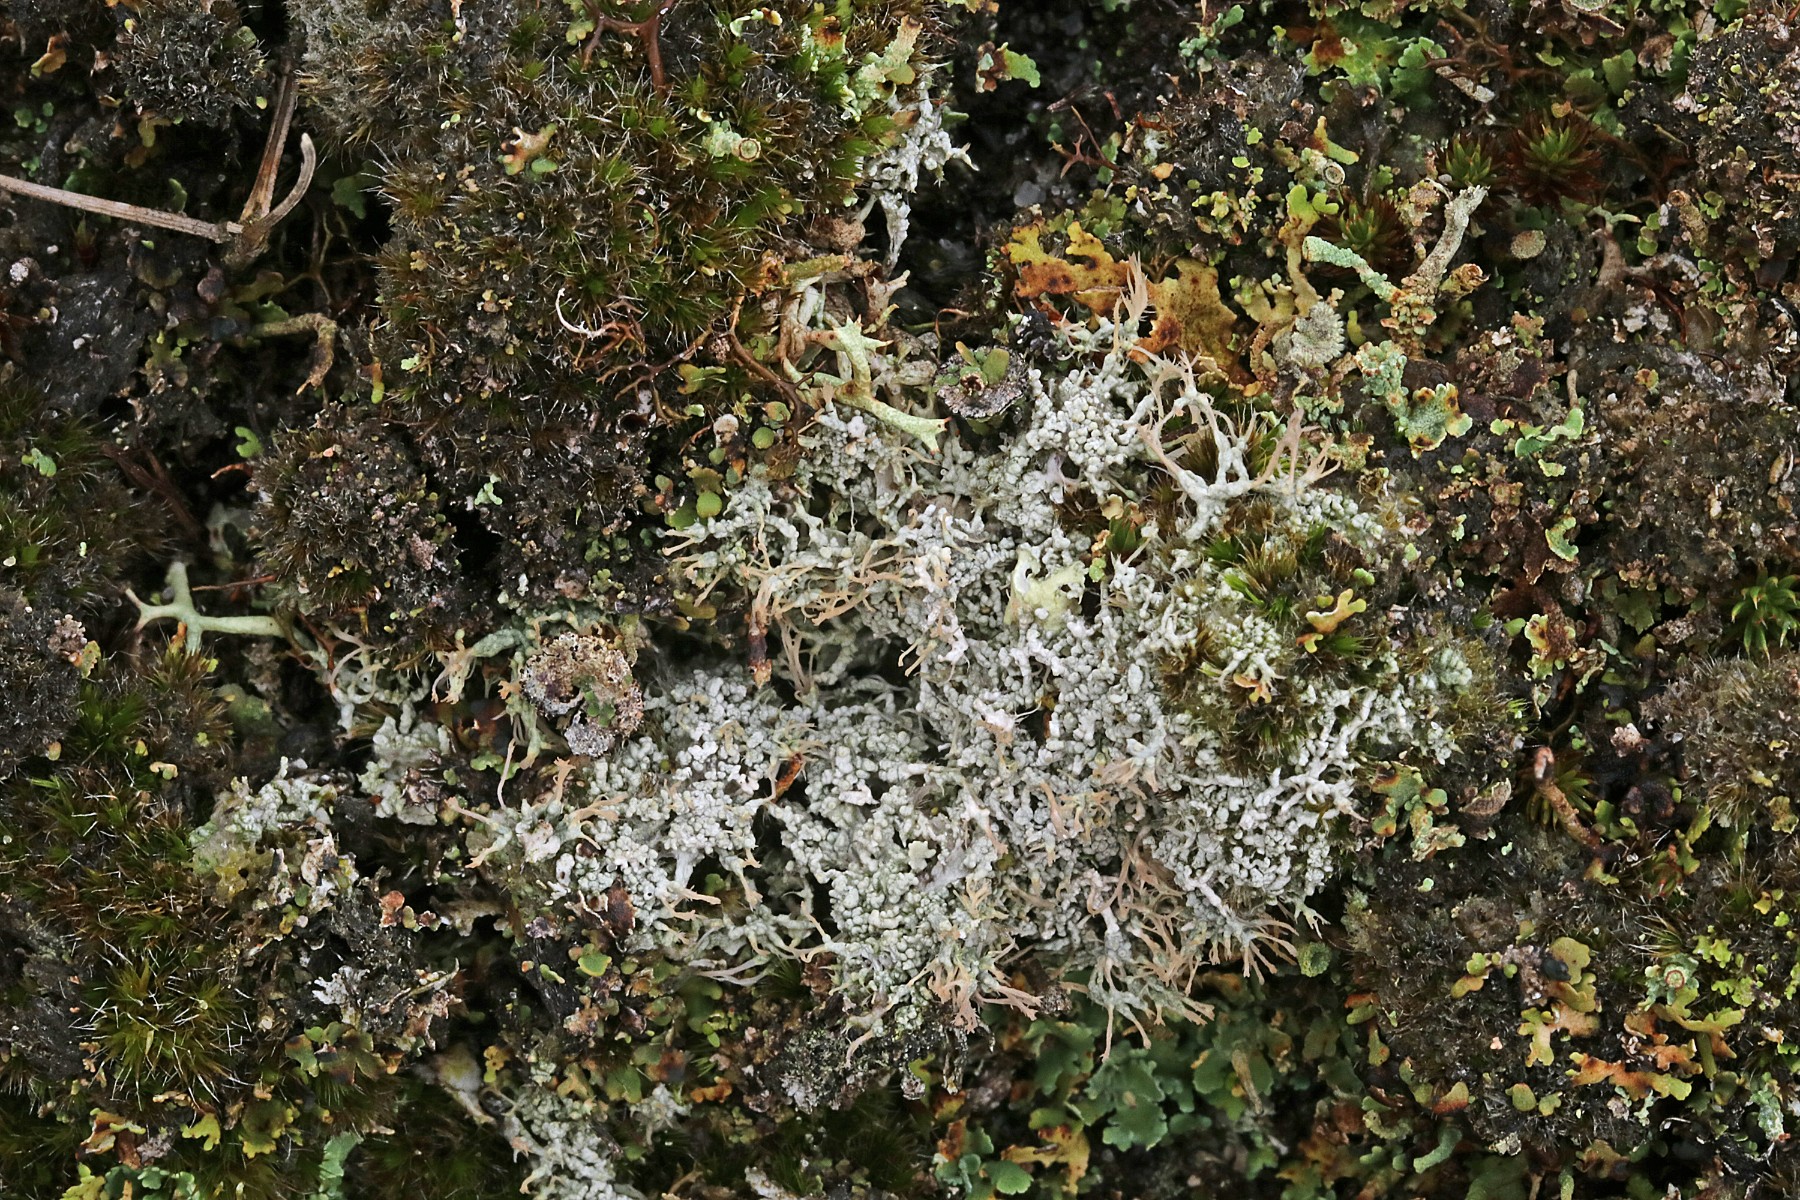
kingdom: Fungi
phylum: Ascomycota
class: Lecanoromycetes
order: Pertusariales
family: Ochrolechiaceae
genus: Ochrolechia
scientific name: Ochrolechia frigida
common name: fjeld-blegskivelav
